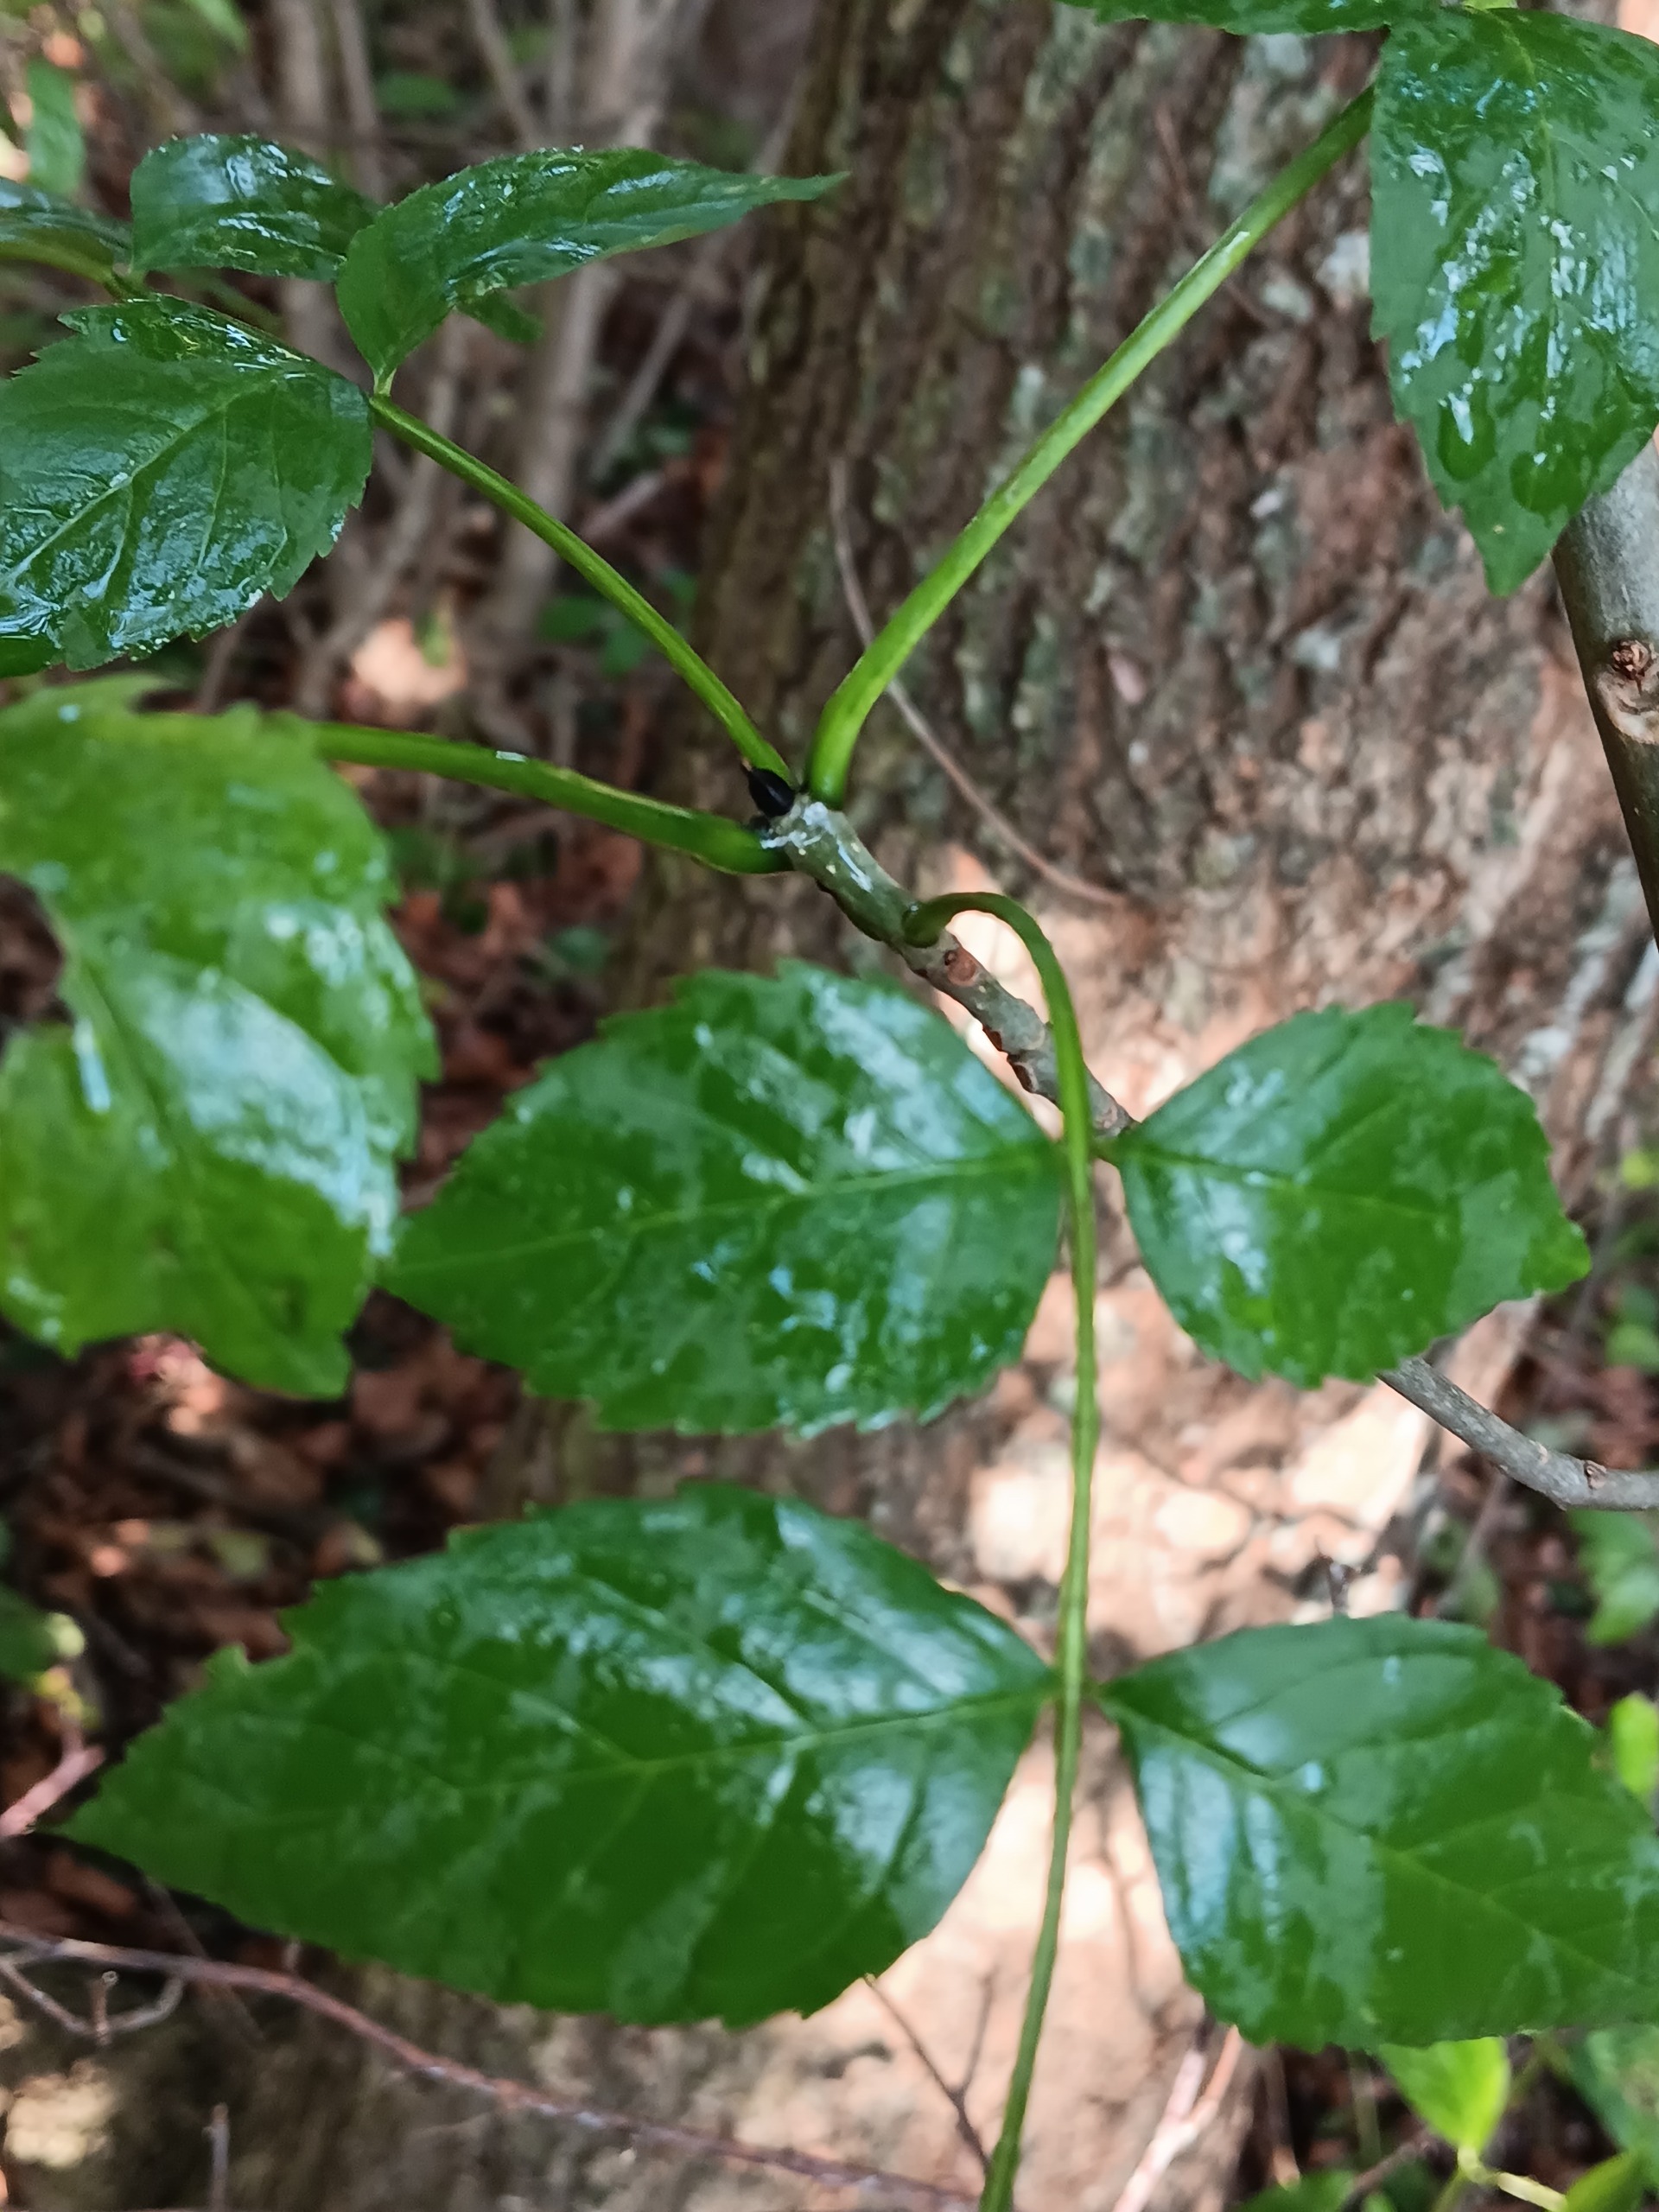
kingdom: Plantae
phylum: Tracheophyta
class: Magnoliopsida
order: Lamiales
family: Oleaceae
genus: Fraxinus
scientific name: Fraxinus excelsior
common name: Ask
